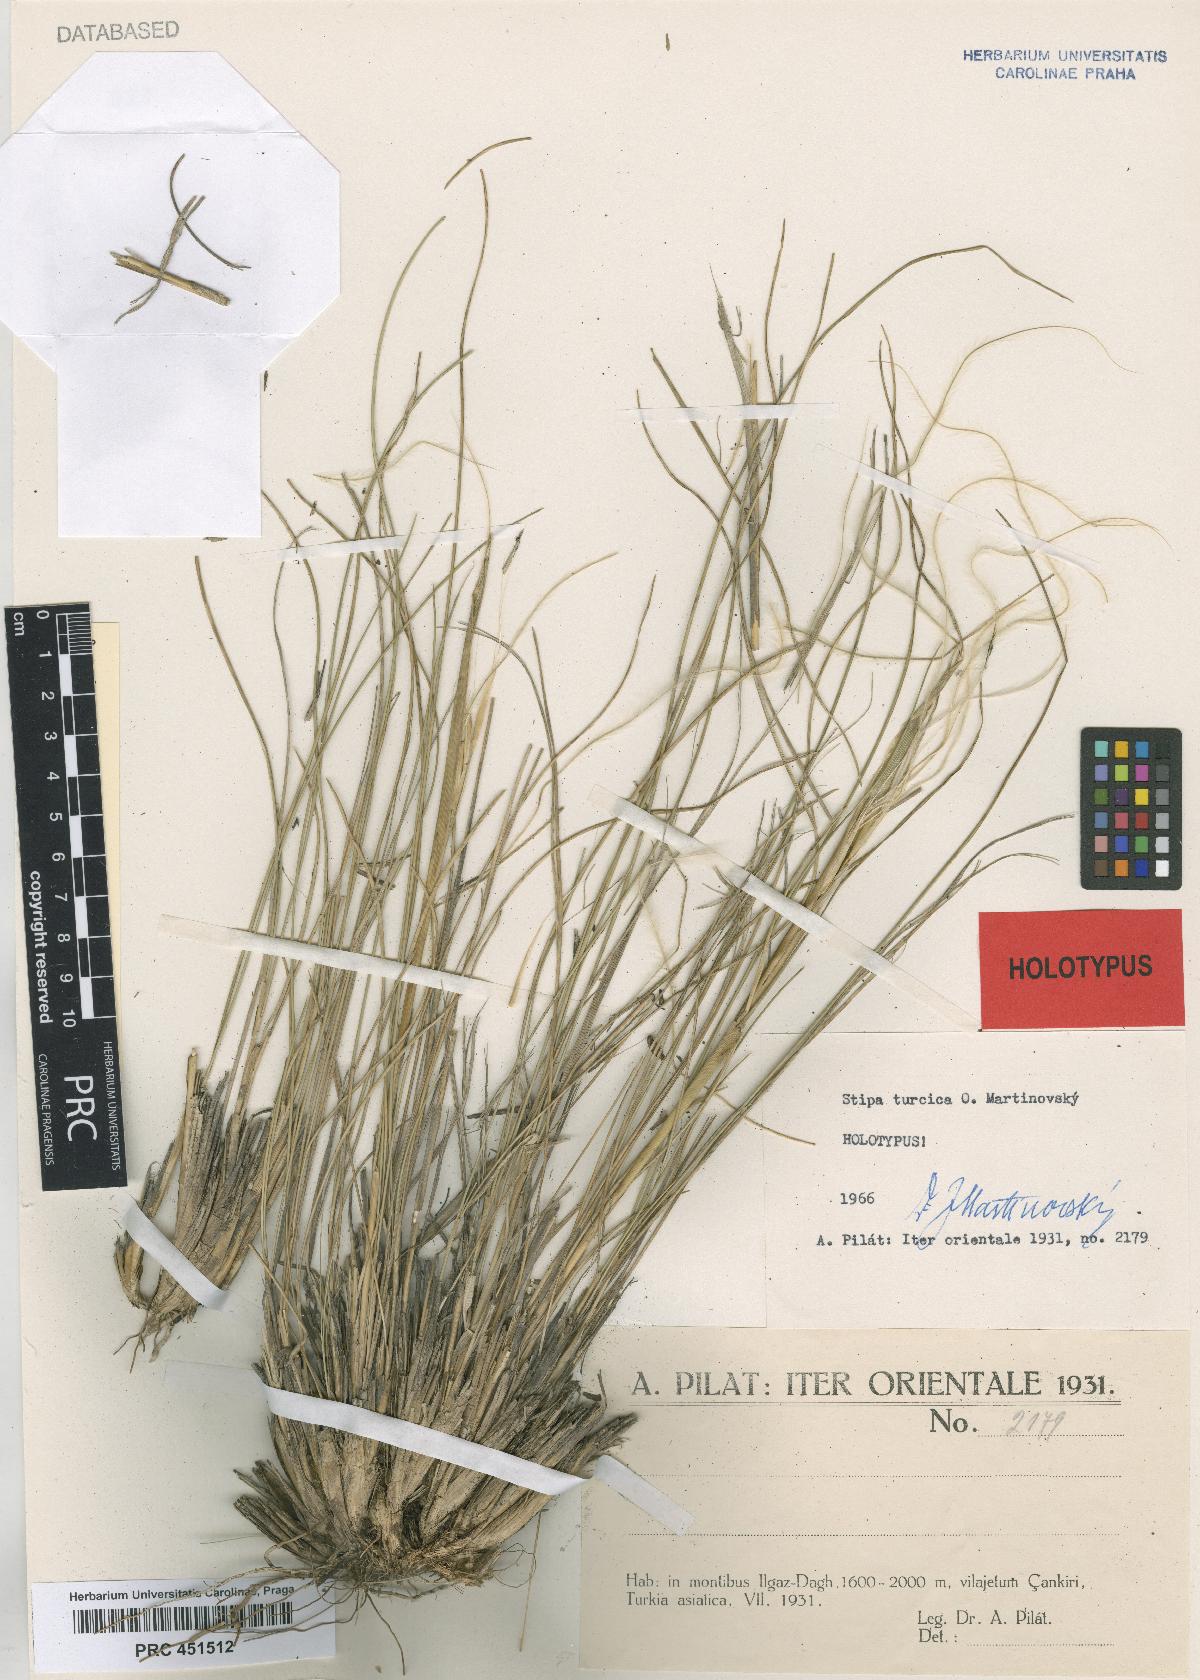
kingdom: Plantae
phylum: Tracheophyta
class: Liliopsida
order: Poales
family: Poaceae
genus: Stipa
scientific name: Stipa pulcherrima
